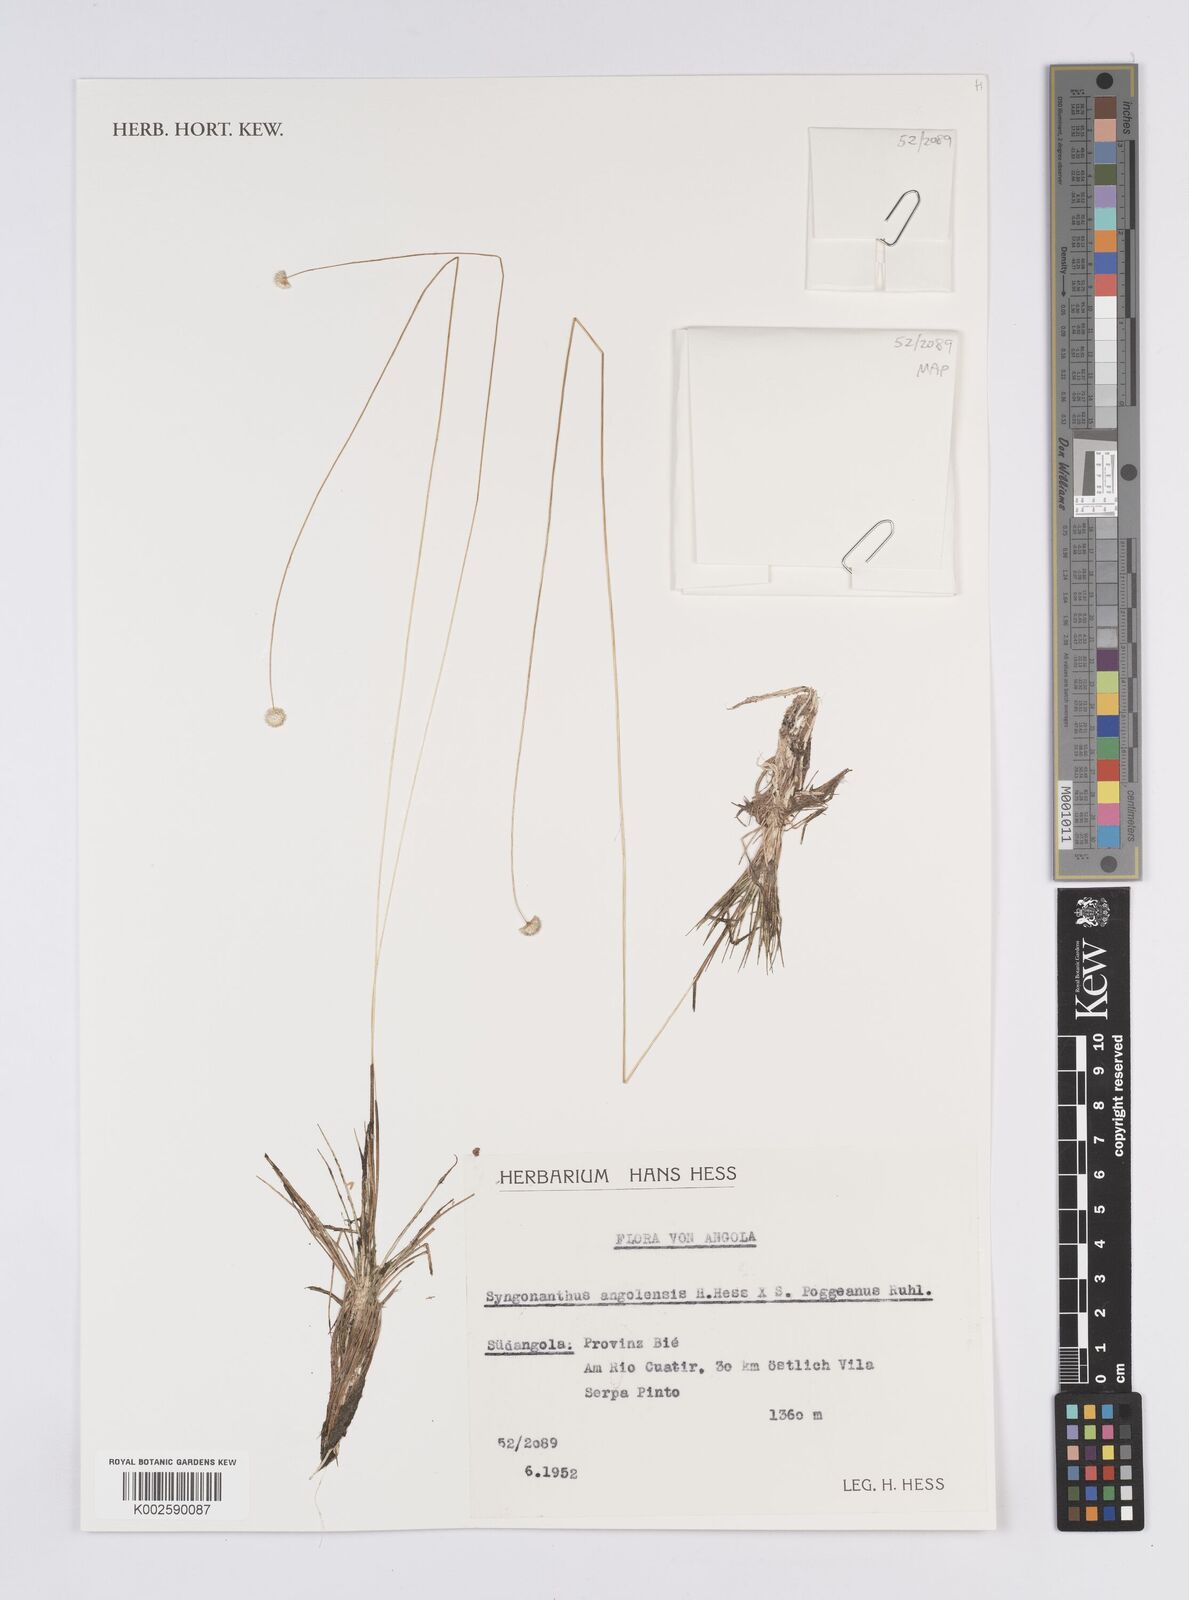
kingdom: Plantae
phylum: Tracheophyta
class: Liliopsida
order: Poales
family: Eriocaulaceae
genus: Syngonanthus
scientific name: Syngonanthus angolensis
